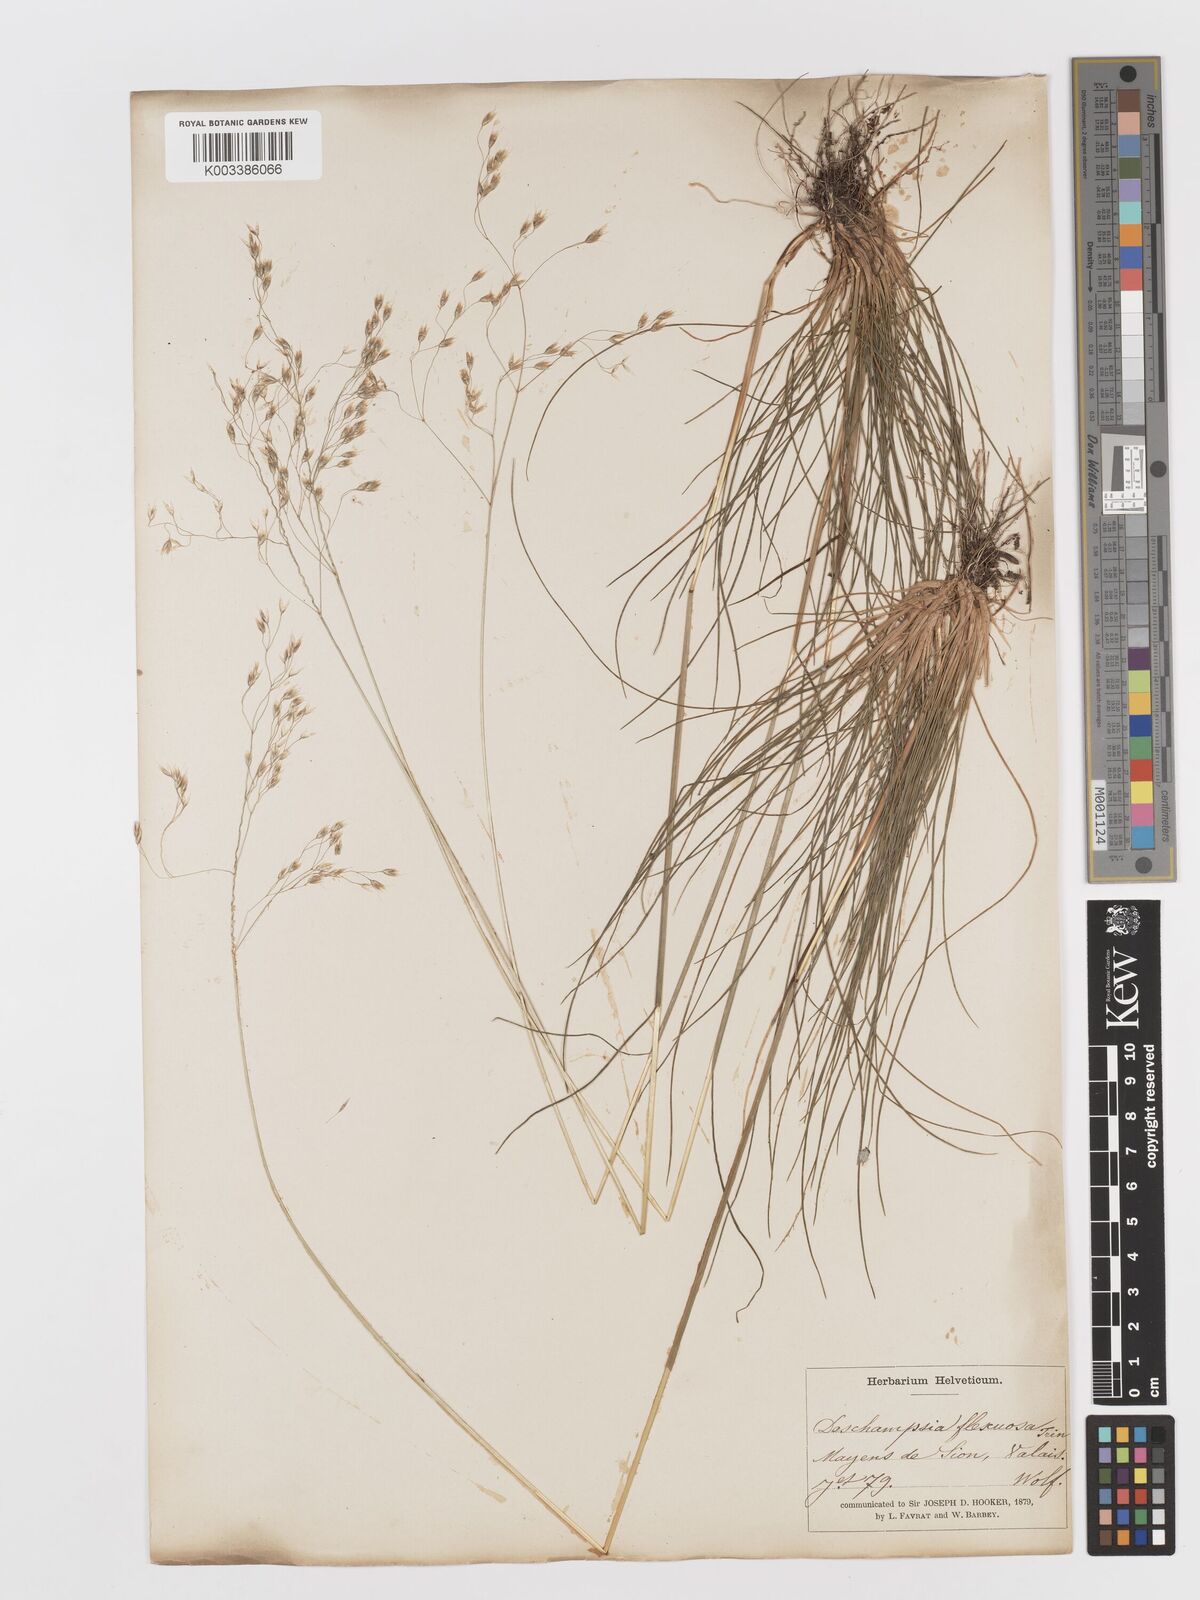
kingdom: Plantae
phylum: Tracheophyta
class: Liliopsida
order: Poales
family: Poaceae
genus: Avenella
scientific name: Avenella flexuosa
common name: Wavy hairgrass
